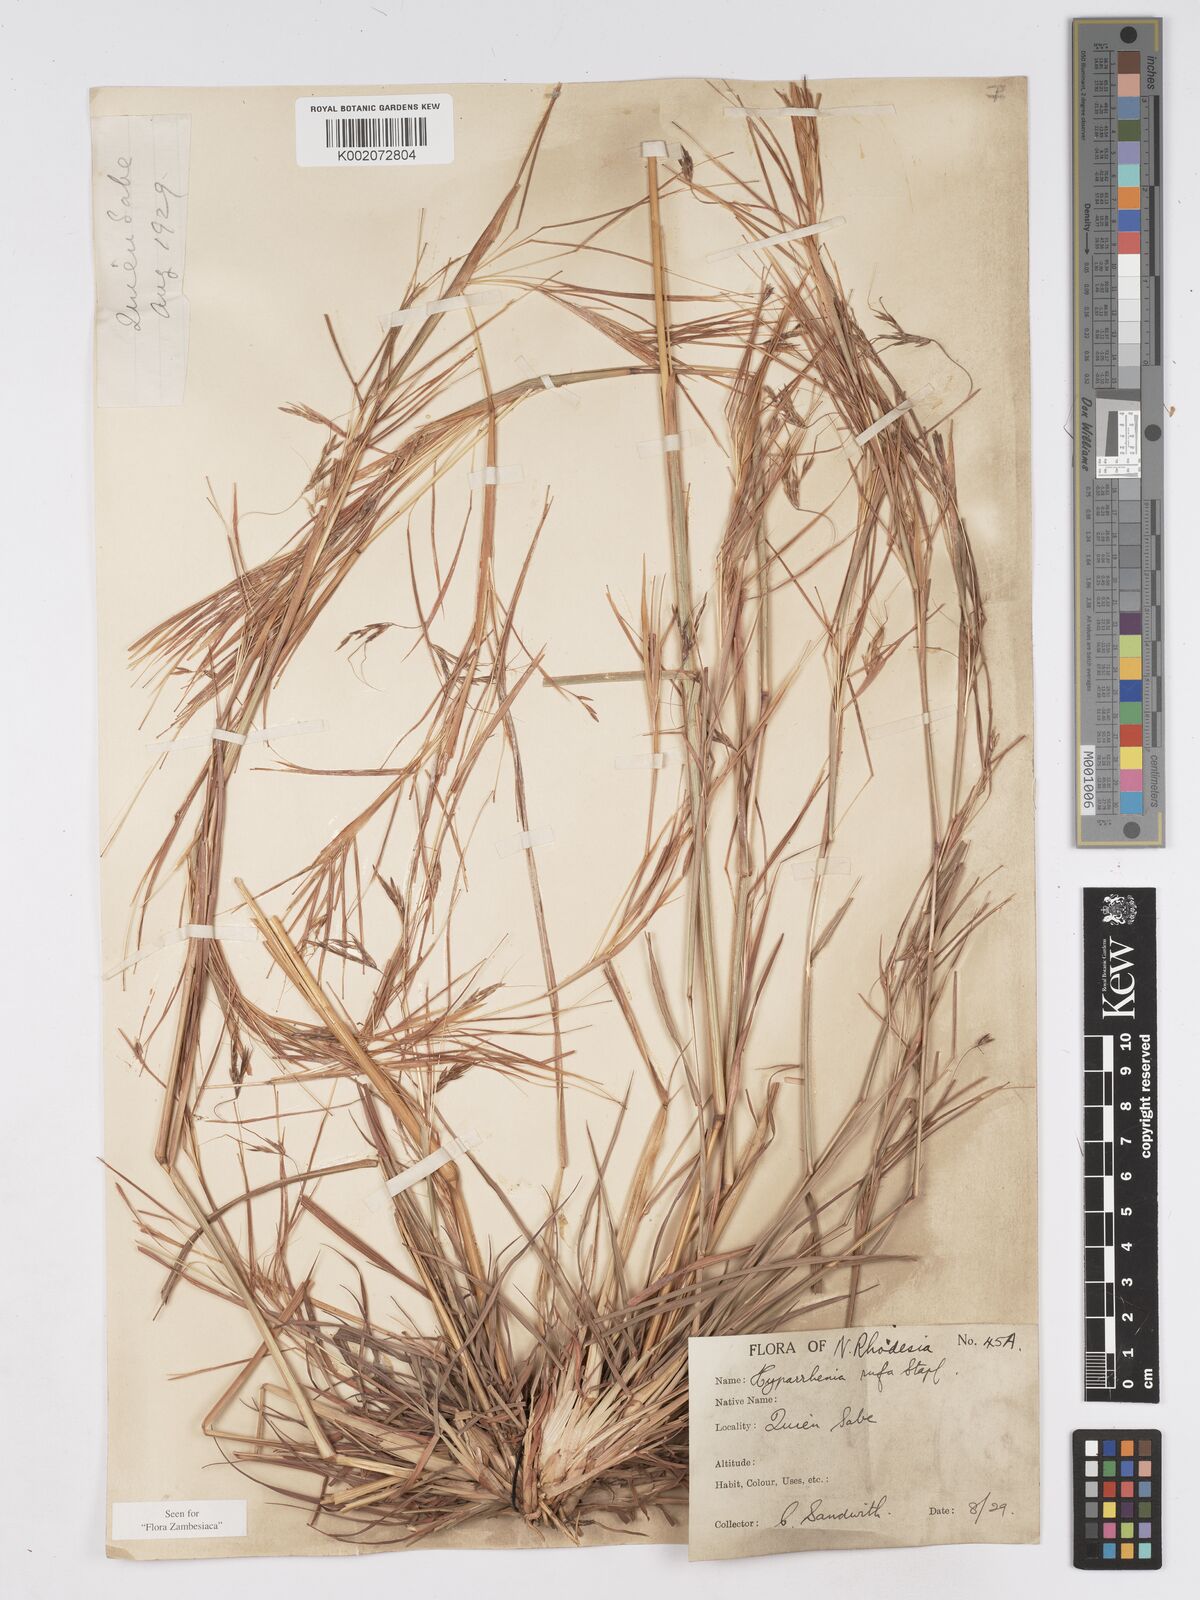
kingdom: Plantae
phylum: Tracheophyta
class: Liliopsida
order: Poales
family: Poaceae
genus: Hyparrhenia
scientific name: Hyparrhenia rufa
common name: Jaraguagrass
